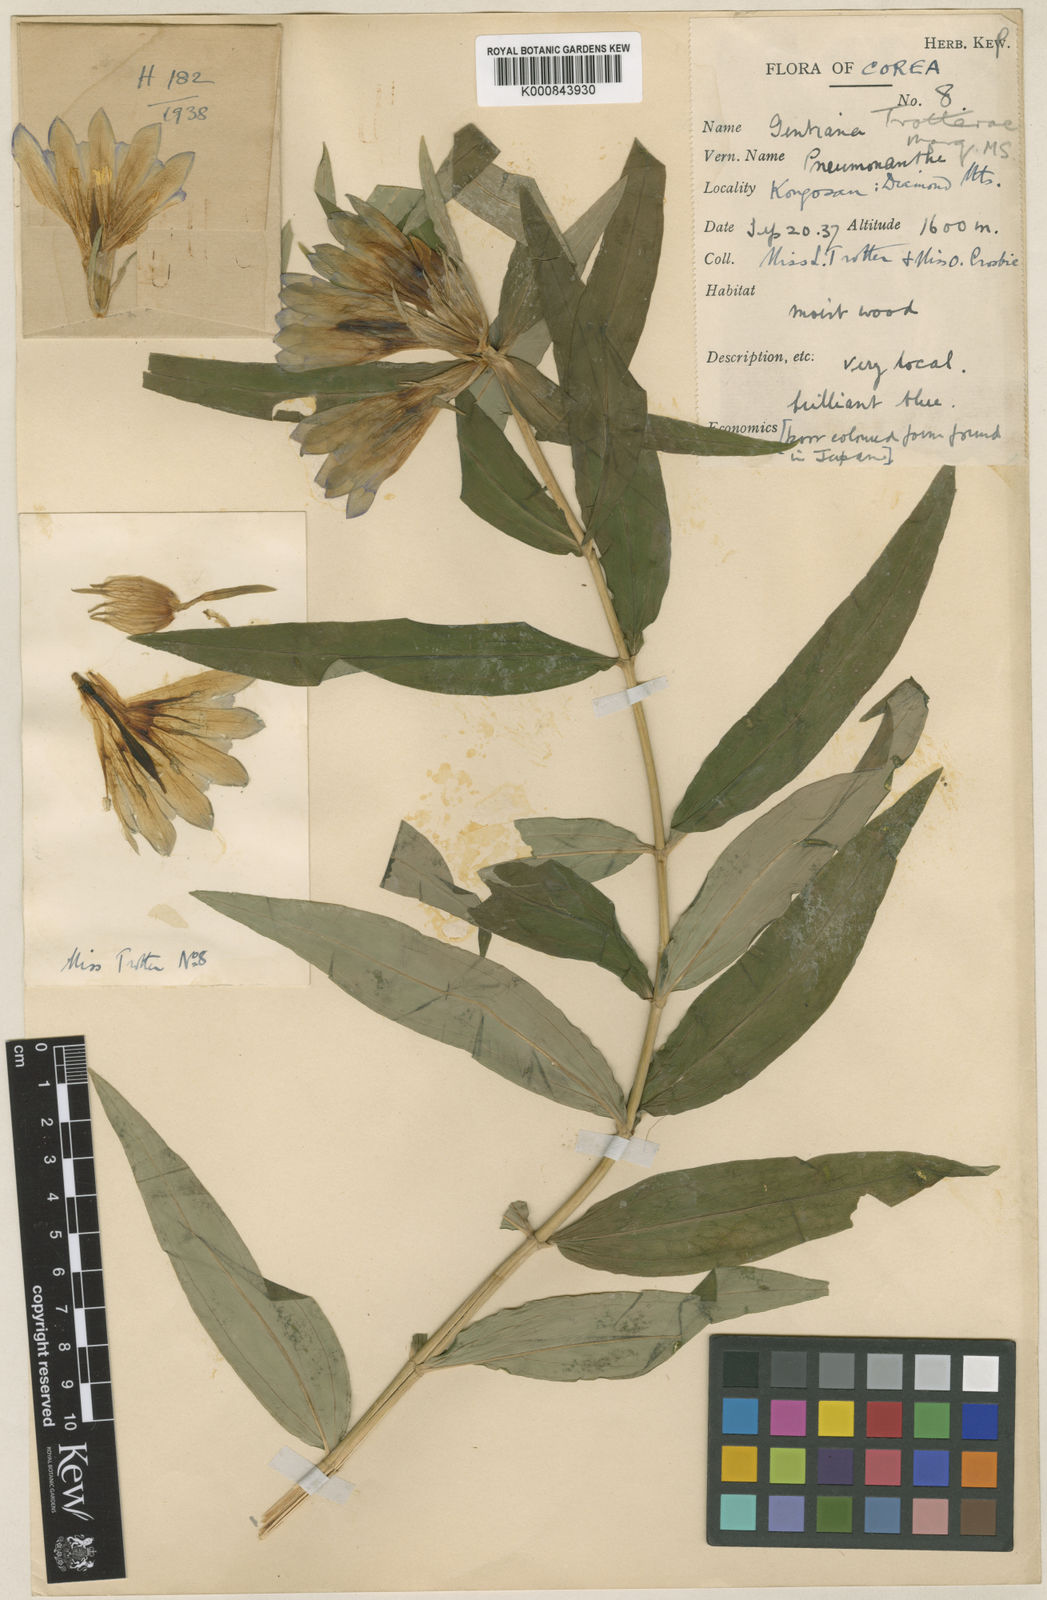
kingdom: Plantae
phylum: Tracheophyta
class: Magnoliopsida
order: Gentianales
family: Gentianaceae
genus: Gentiana
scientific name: Gentiana
